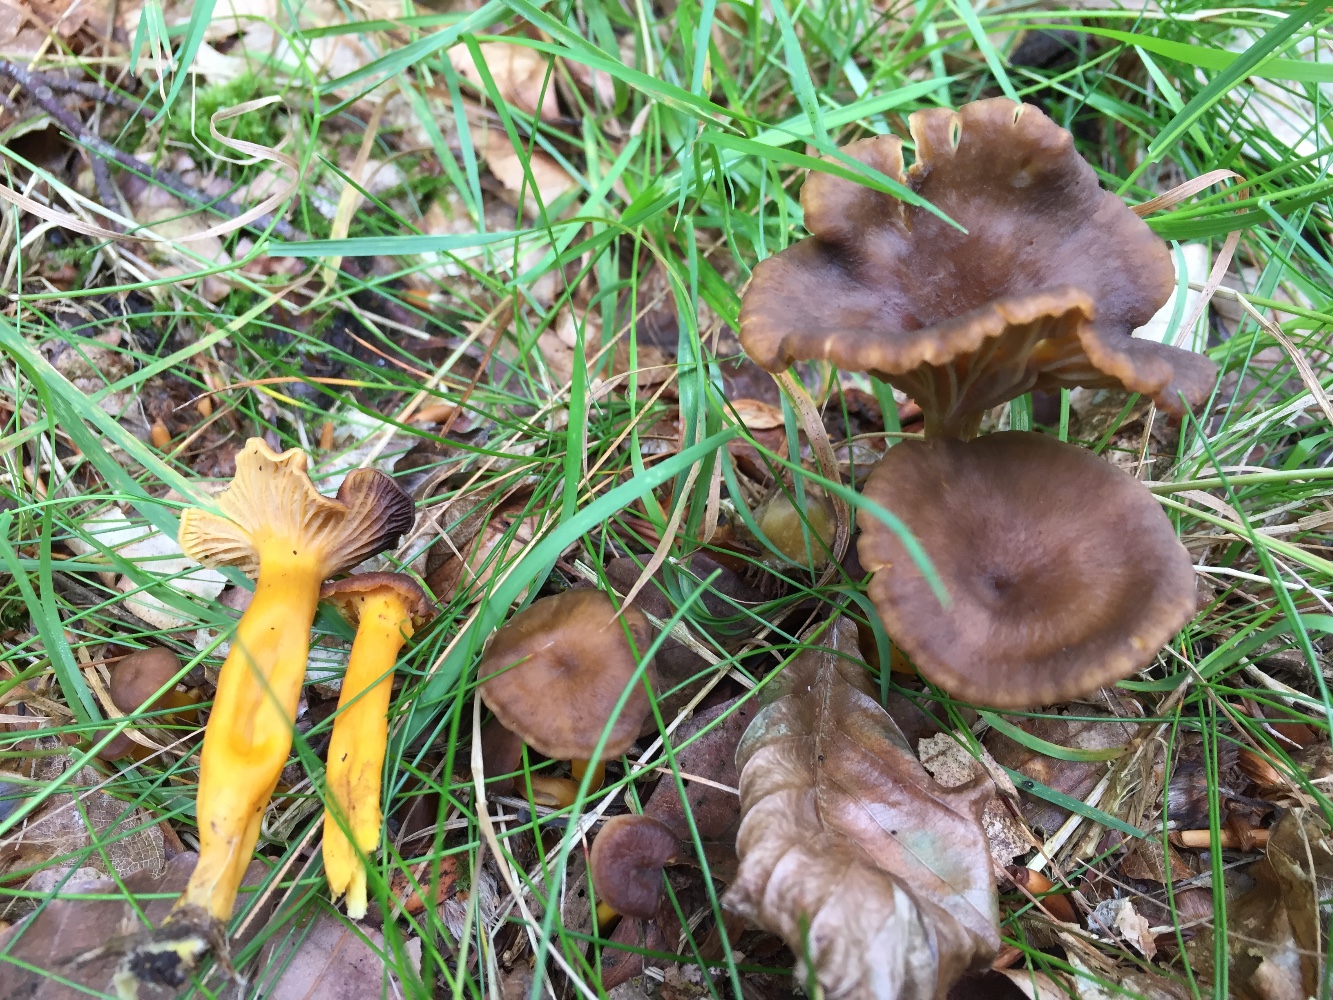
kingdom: Fungi
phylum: Basidiomycota
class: Agaricomycetes
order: Cantharellales
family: Hydnaceae
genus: Craterellus
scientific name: Craterellus tubaeformis
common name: tragt-kantarel
